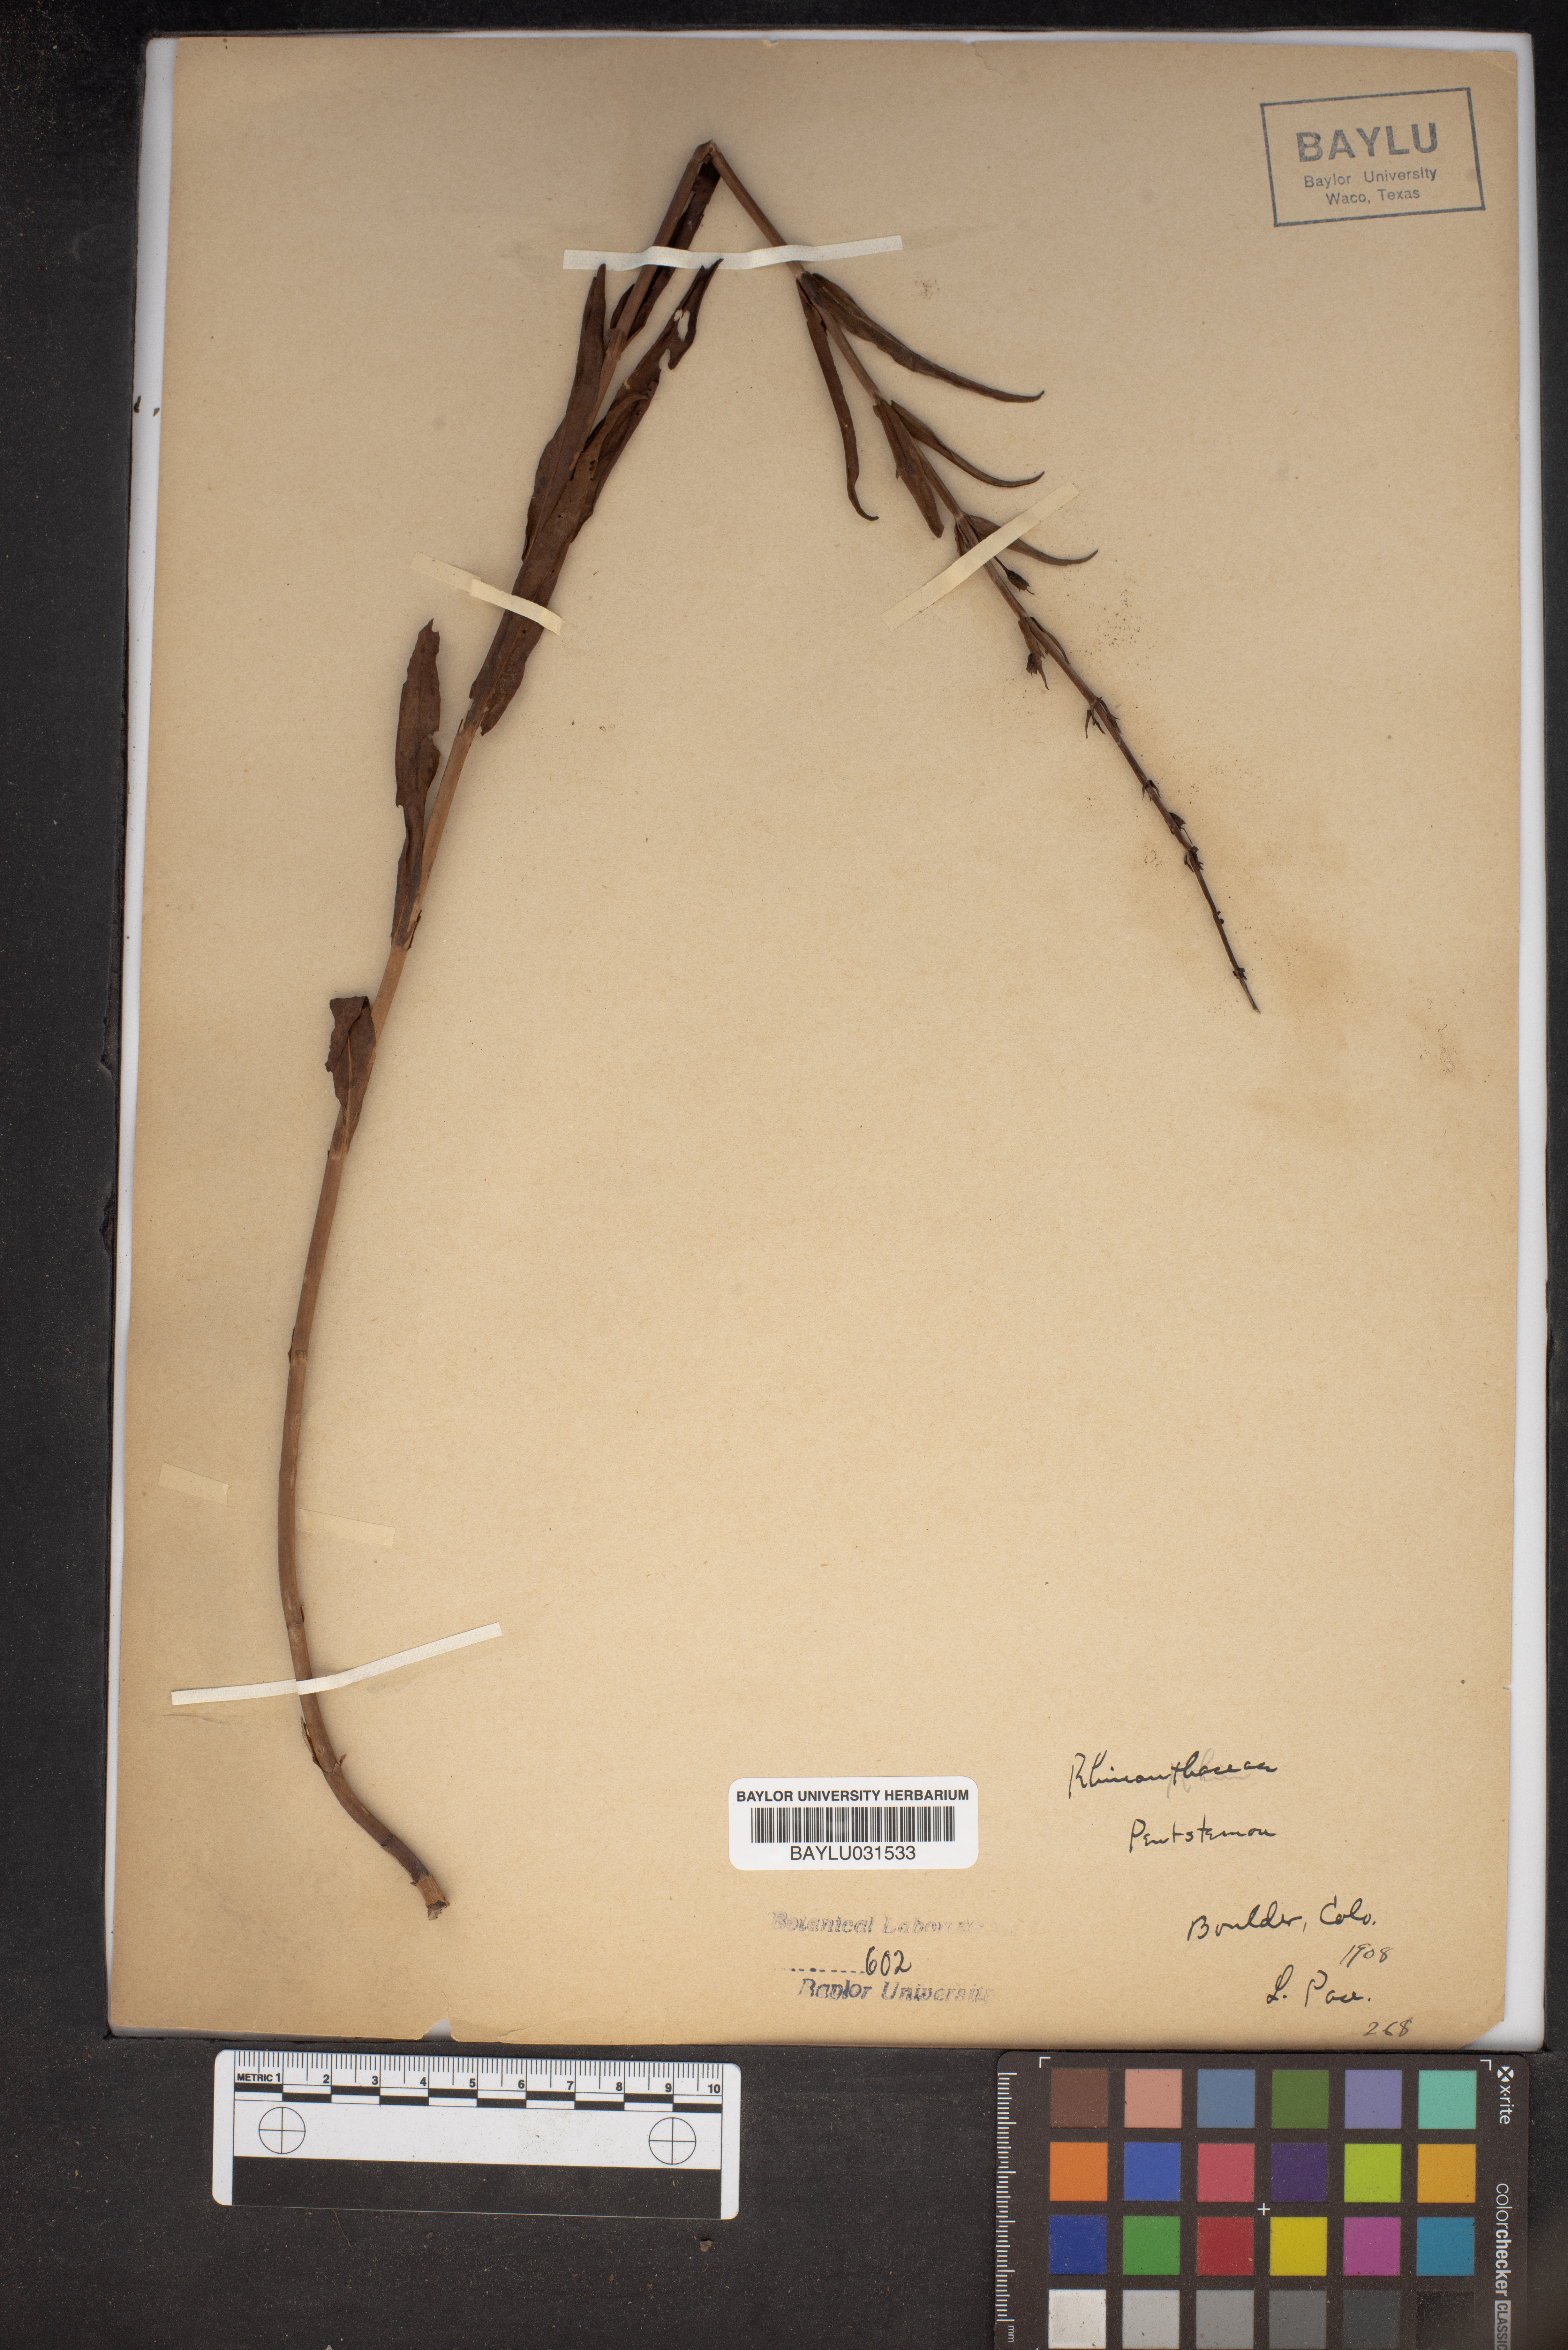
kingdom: Plantae
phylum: Tracheophyta
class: Magnoliopsida
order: Lamiales
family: Plantaginaceae
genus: Penstemon
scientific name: Penstemon
